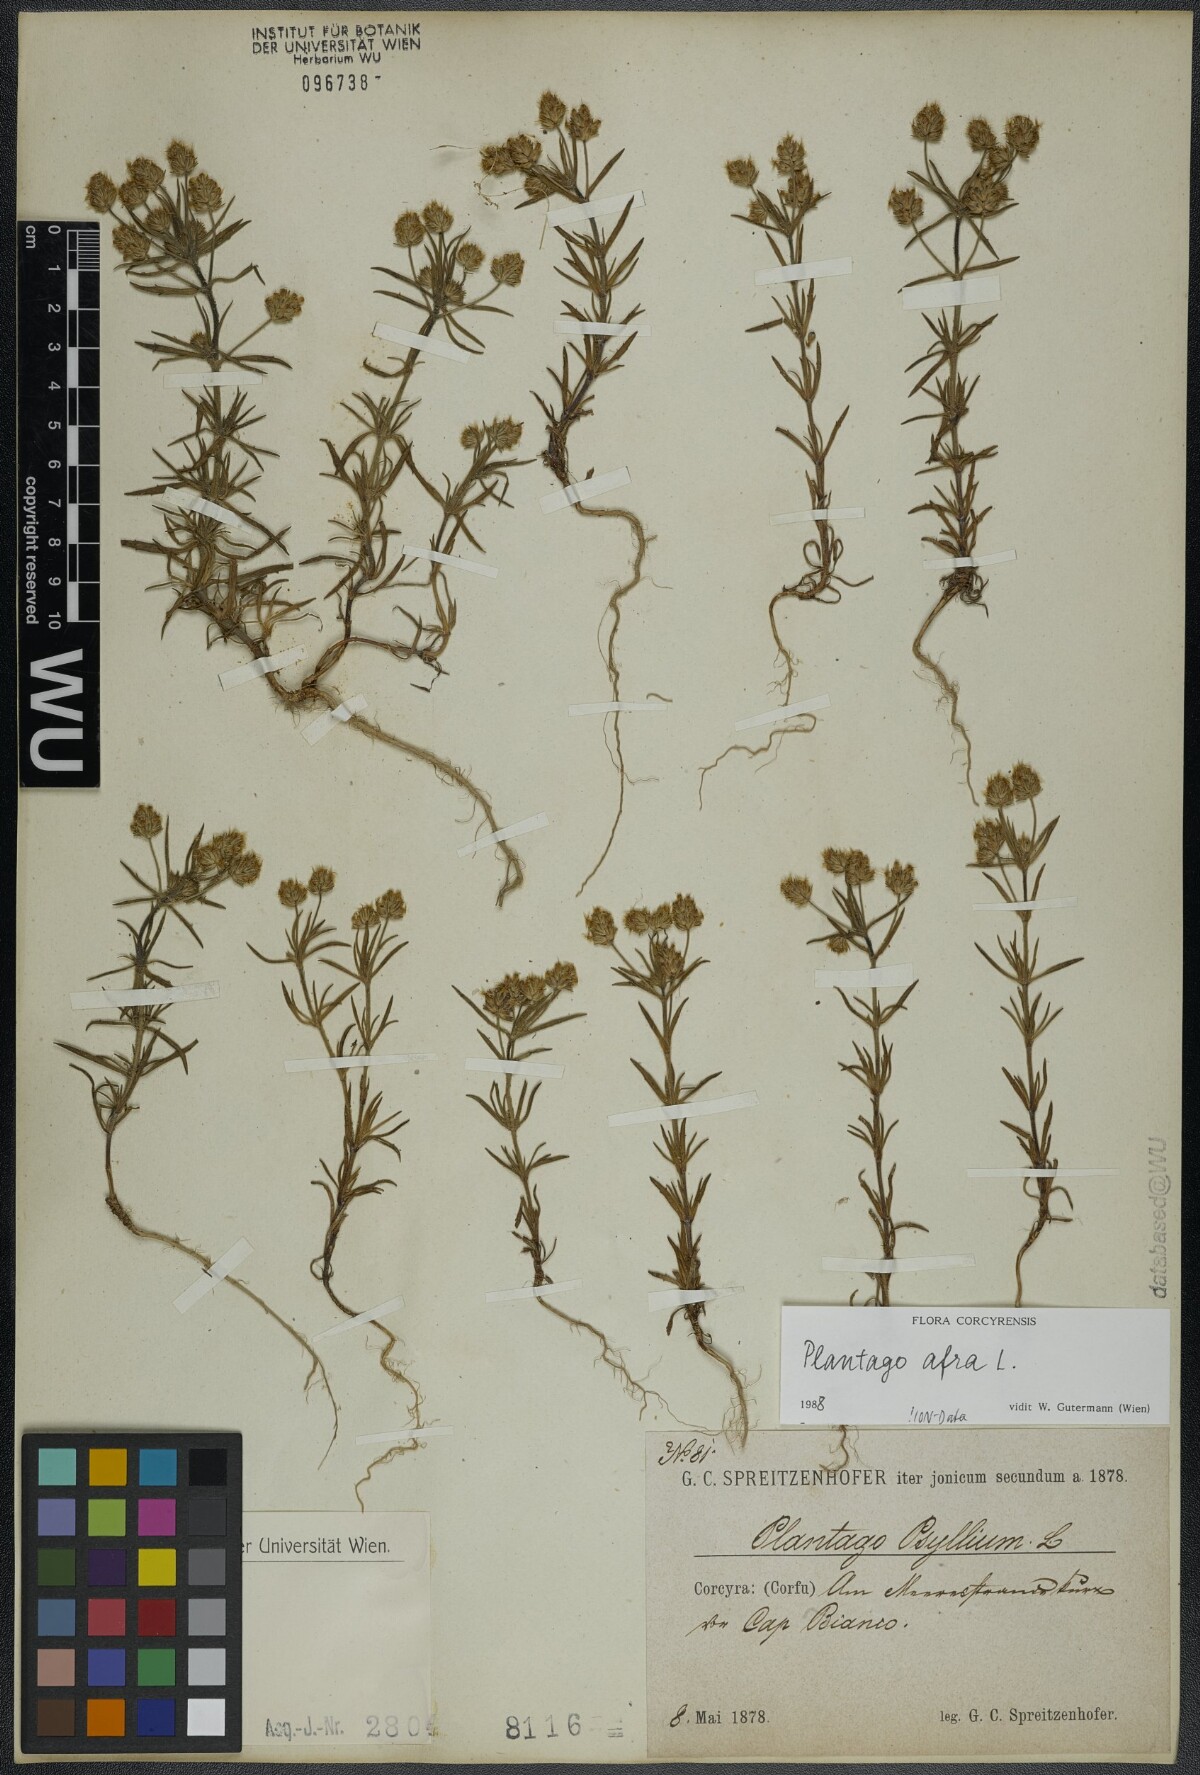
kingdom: Plantae
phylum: Tracheophyta
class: Magnoliopsida
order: Lamiales
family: Plantaginaceae
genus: Plantago
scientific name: Plantago afra
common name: Glandular plantain
